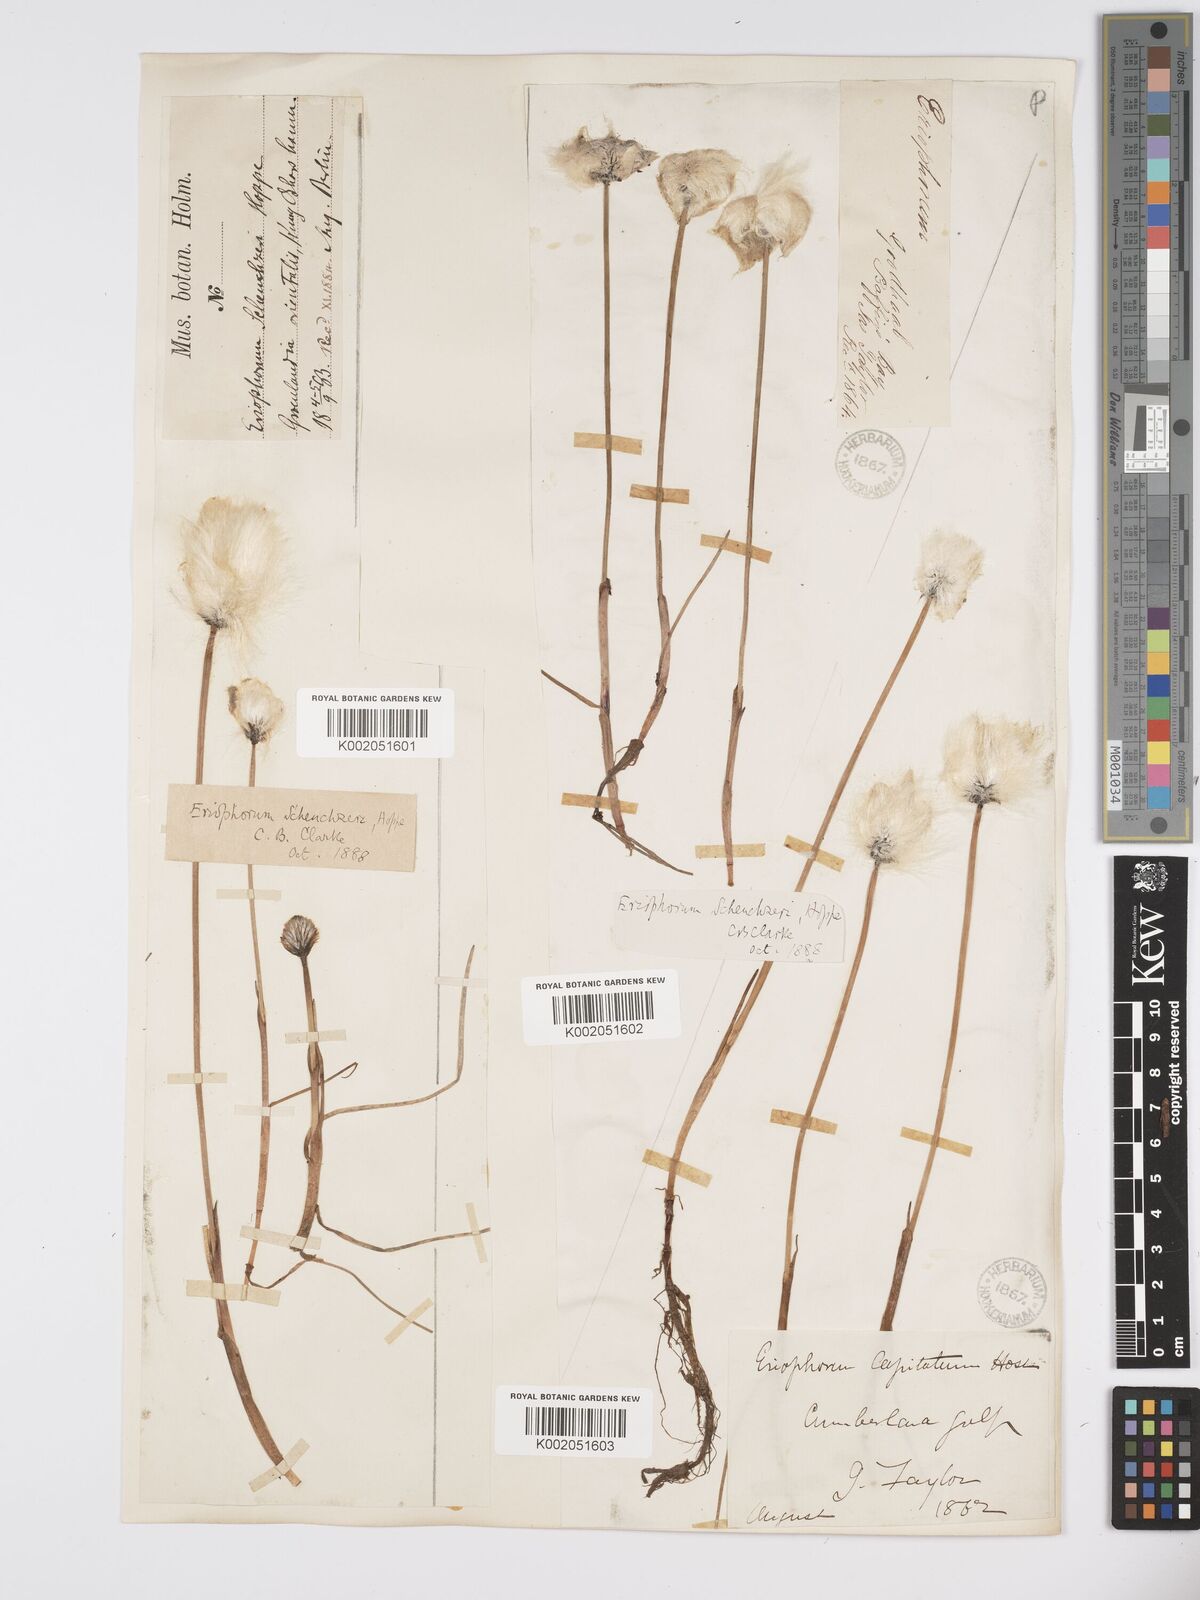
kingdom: Plantae
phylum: Tracheophyta
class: Liliopsida
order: Poales
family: Cyperaceae
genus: Eriophorum
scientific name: Eriophorum scheuchzeri
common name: Scheuchzer's cottongrass
